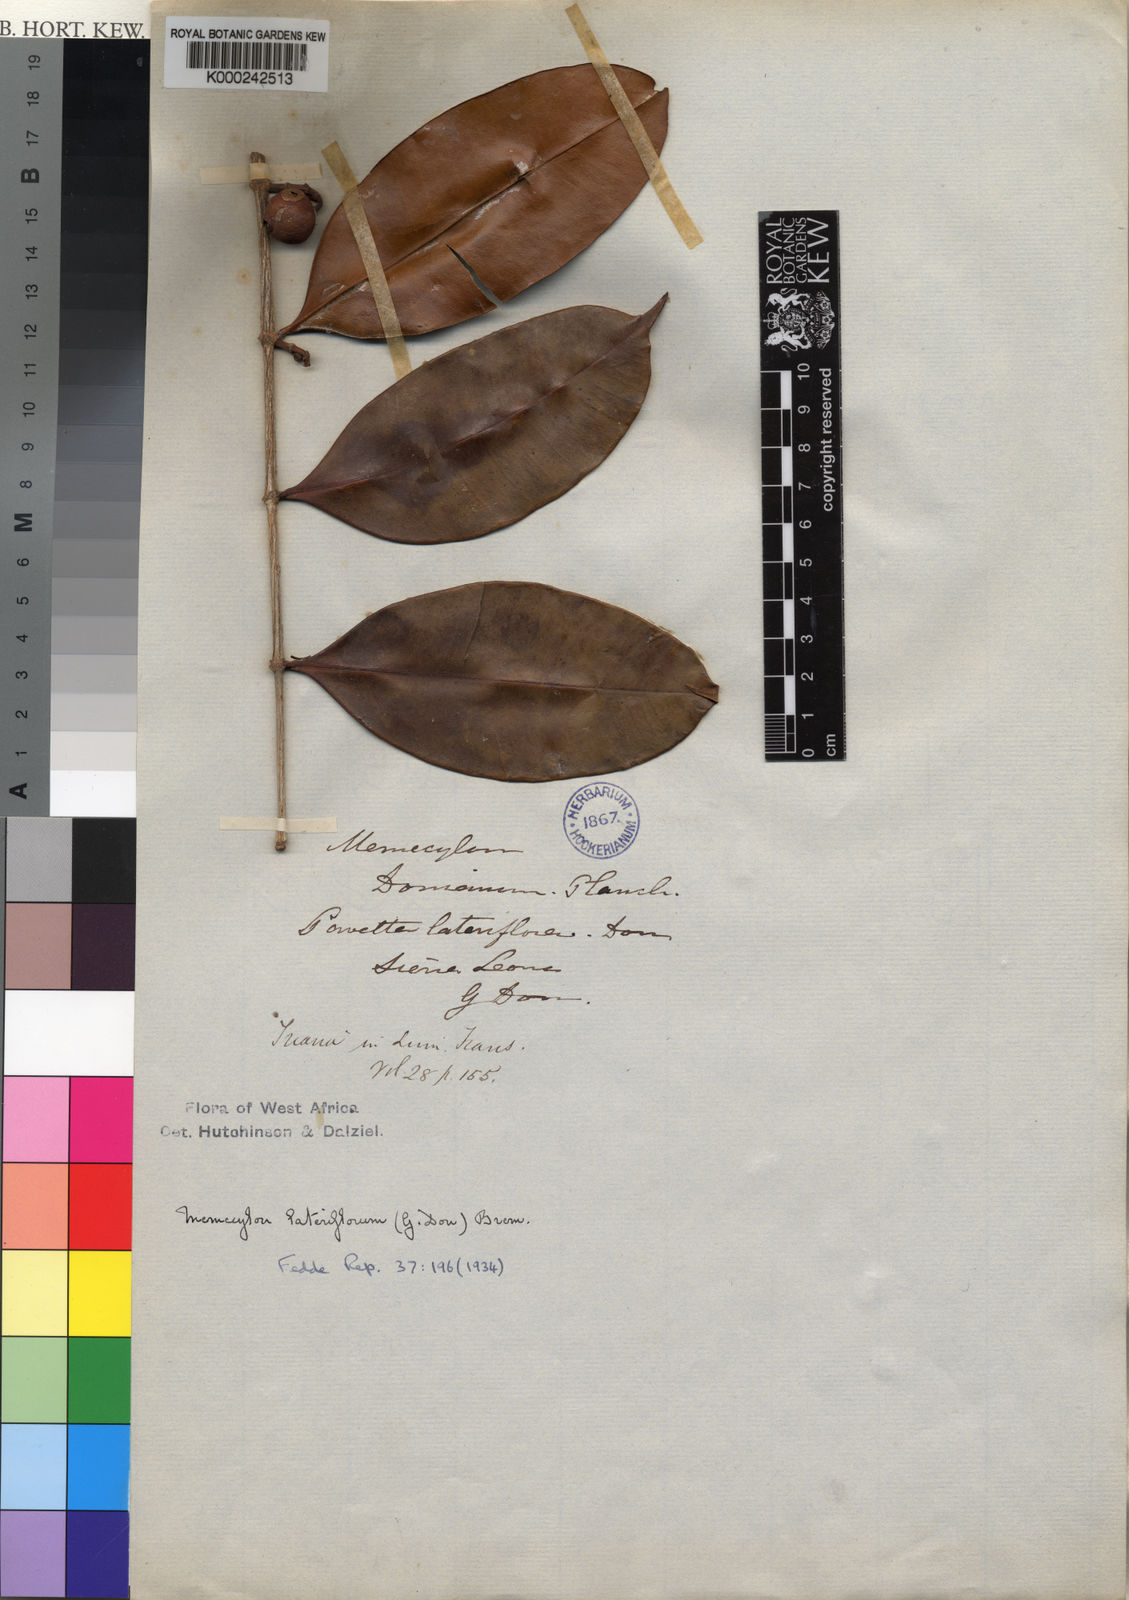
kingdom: Plantae
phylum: Tracheophyta
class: Magnoliopsida
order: Myrtales
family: Melastomataceae
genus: Memecylon
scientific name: Memecylon lateriflorum
